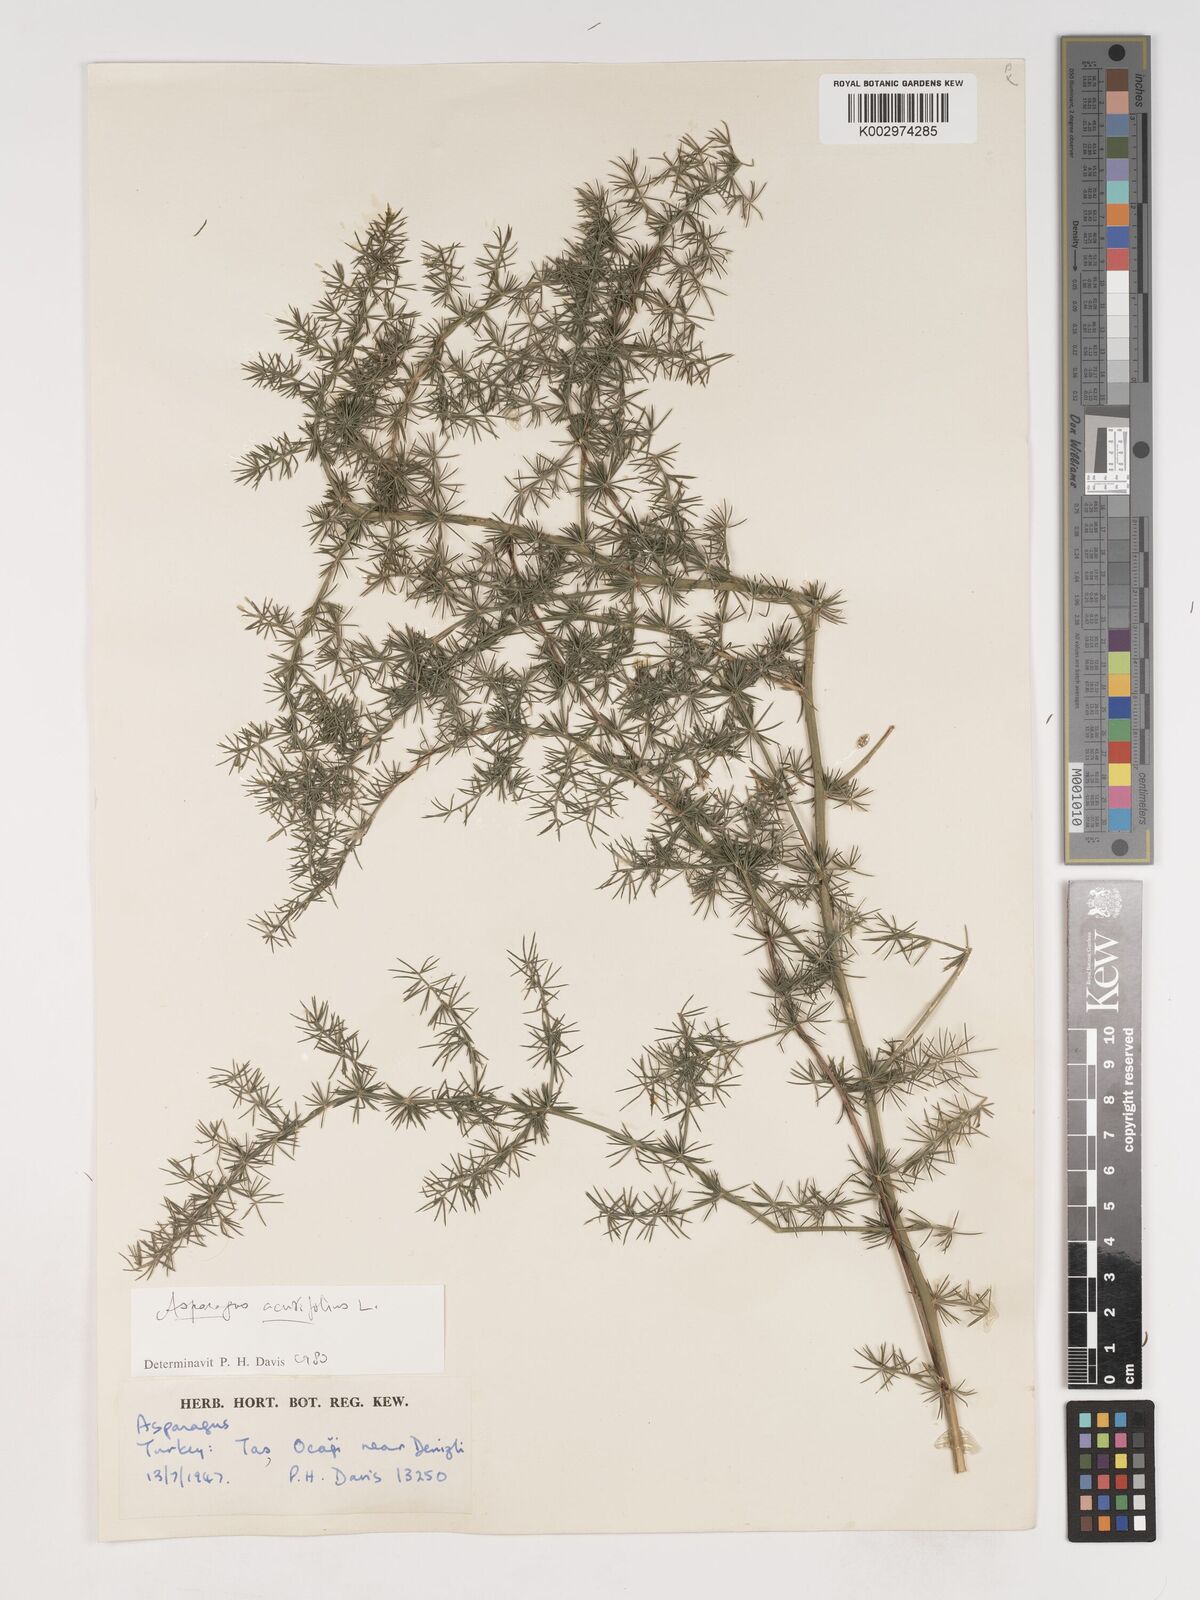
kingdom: Plantae
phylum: Tracheophyta
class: Liliopsida
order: Asparagales
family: Asparagaceae
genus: Asparagus
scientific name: Asparagus acutifolius
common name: Wild asparagus
